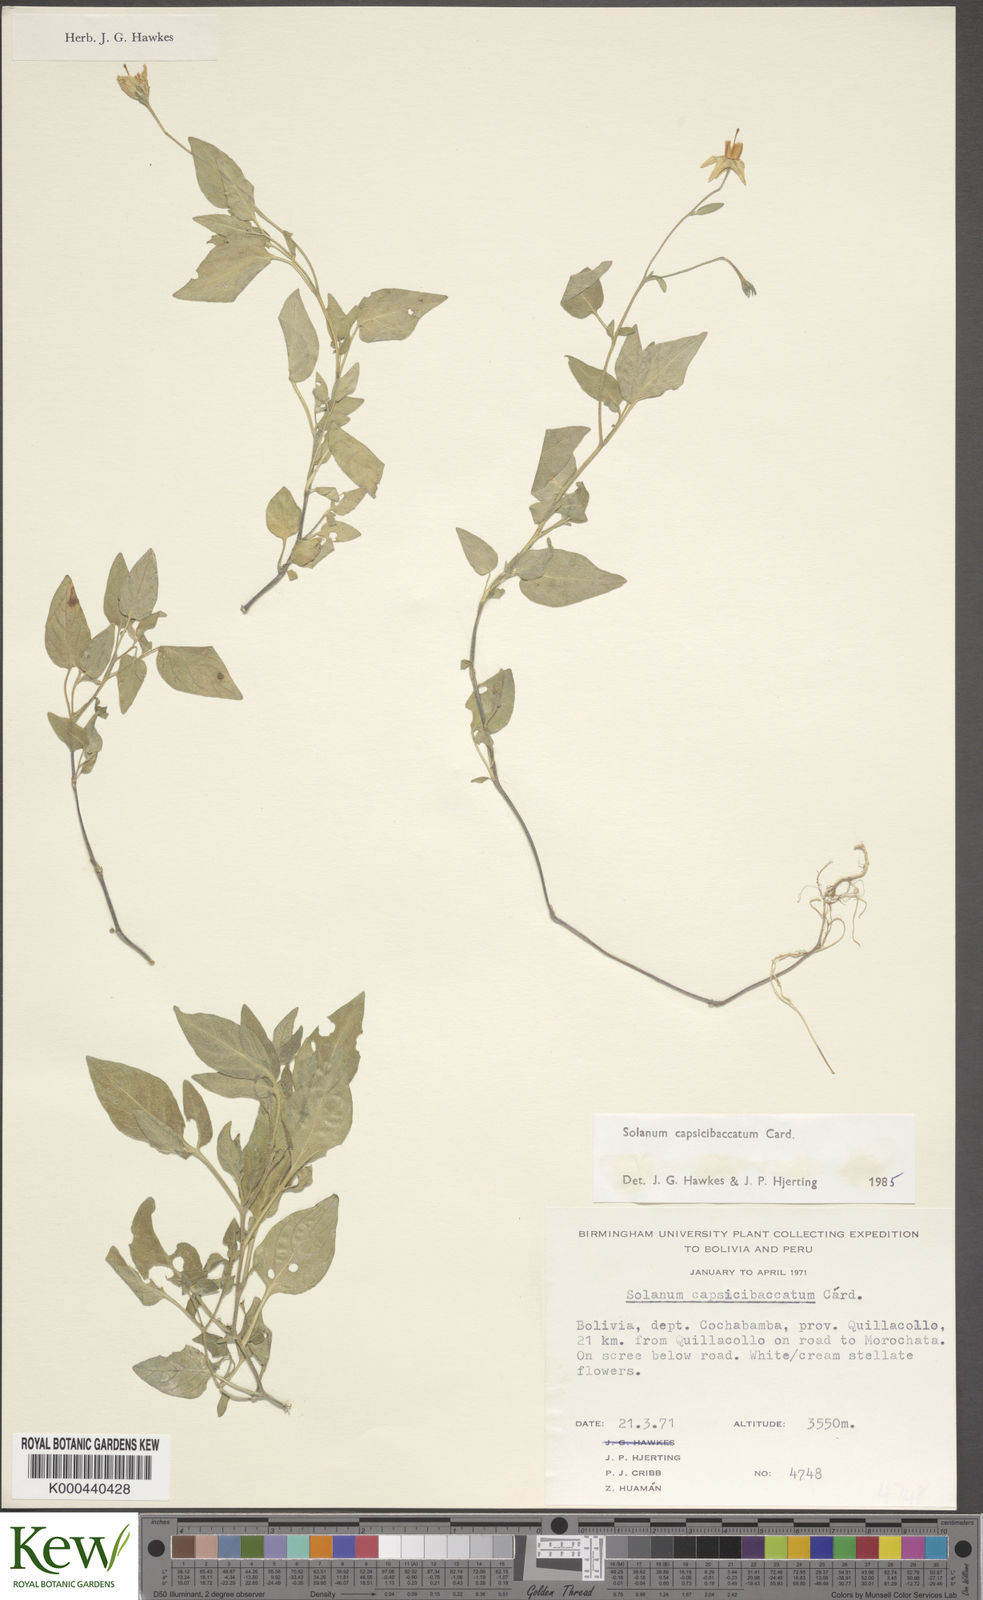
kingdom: Plantae
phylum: Tracheophyta
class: Magnoliopsida
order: Solanales
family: Solanaceae
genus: Solanum
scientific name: Solanum stipuloideum
